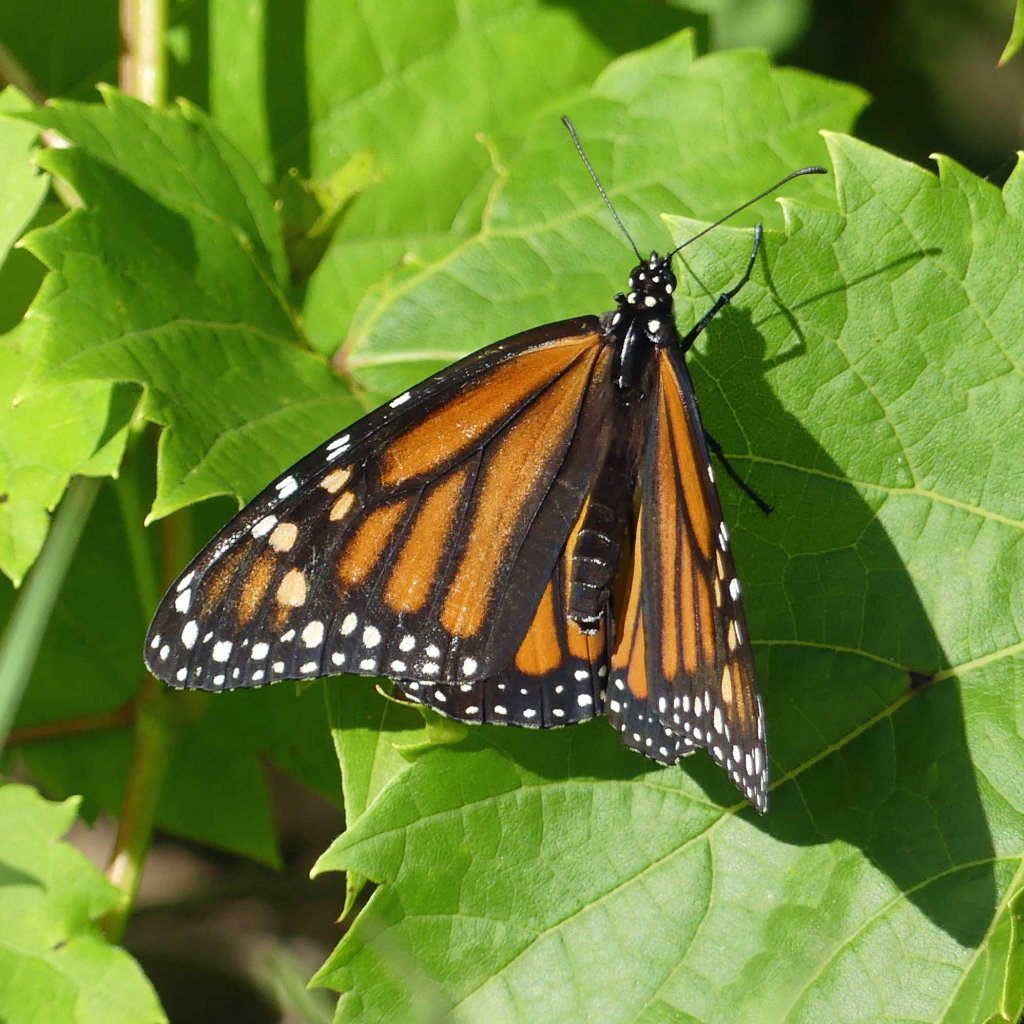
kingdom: Animalia
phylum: Arthropoda
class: Insecta
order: Lepidoptera
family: Nymphalidae
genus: Danaus
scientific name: Danaus plexippus
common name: Monarch
